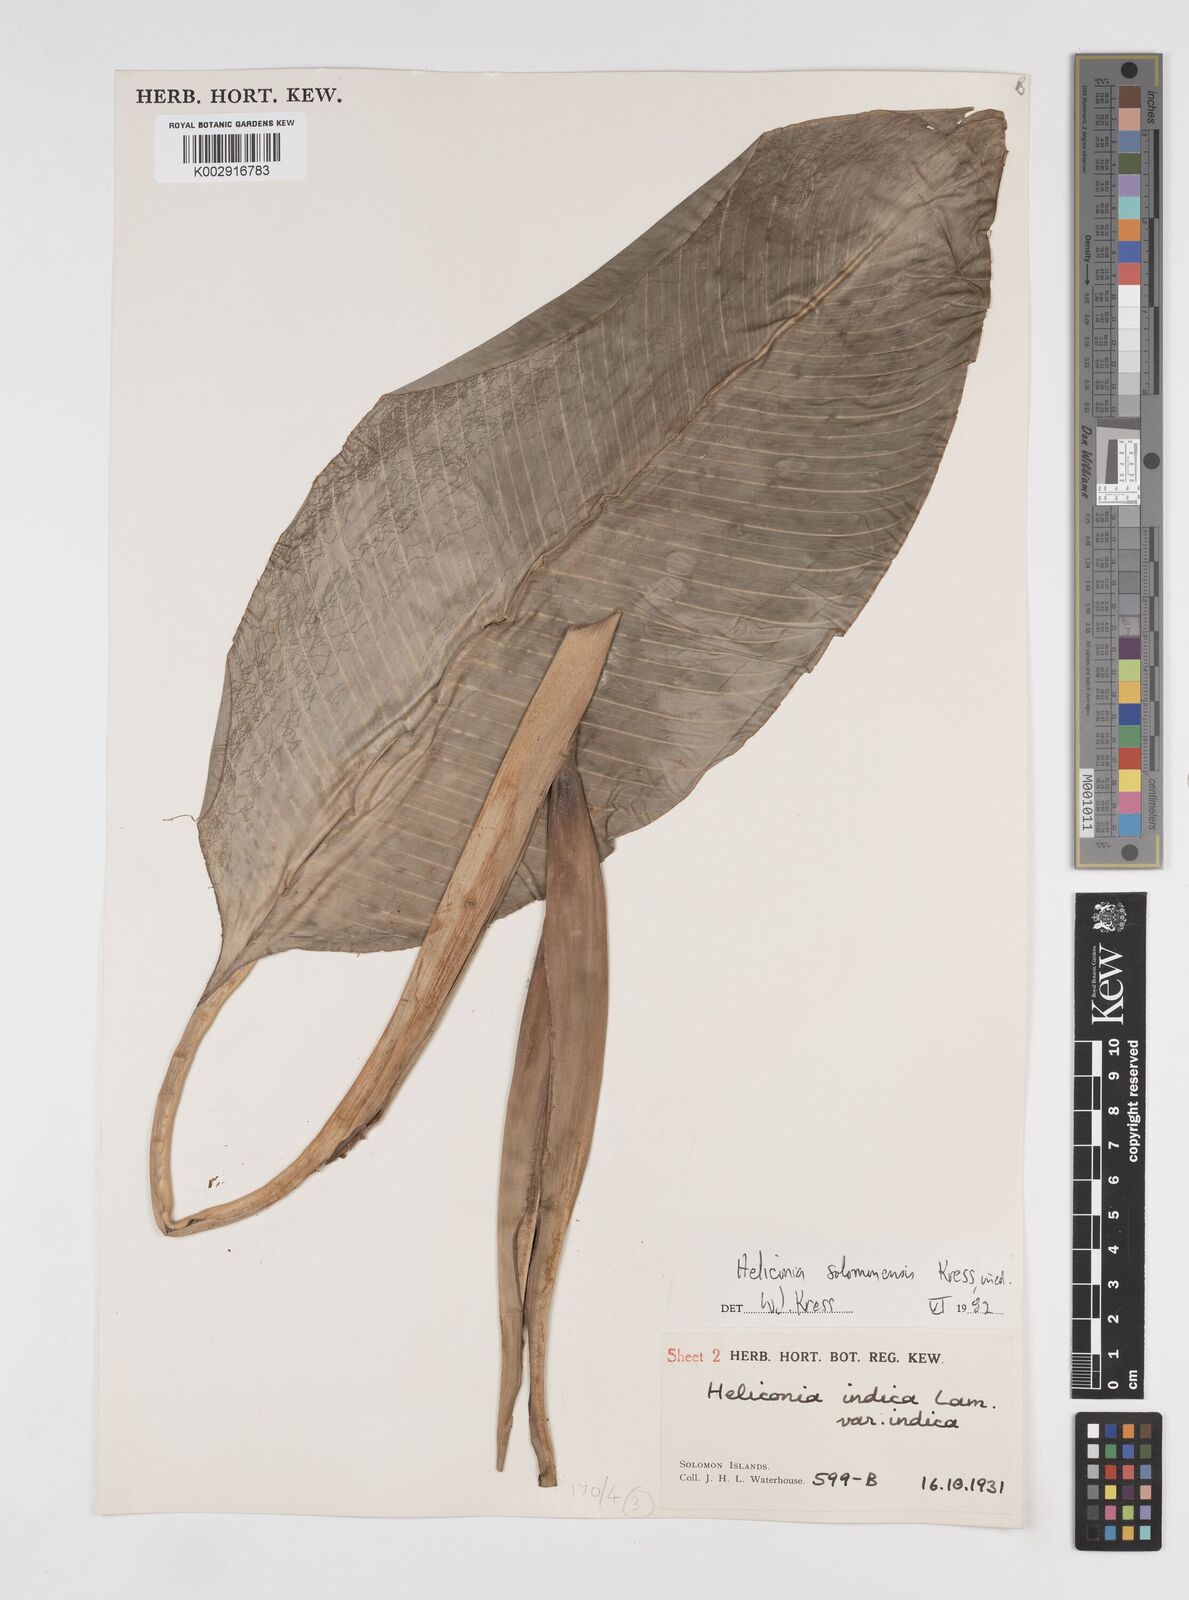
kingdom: Plantae
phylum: Tracheophyta
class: Liliopsida
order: Zingiberales
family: Heliconiaceae
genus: Heliconia
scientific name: Heliconia solomonensis
